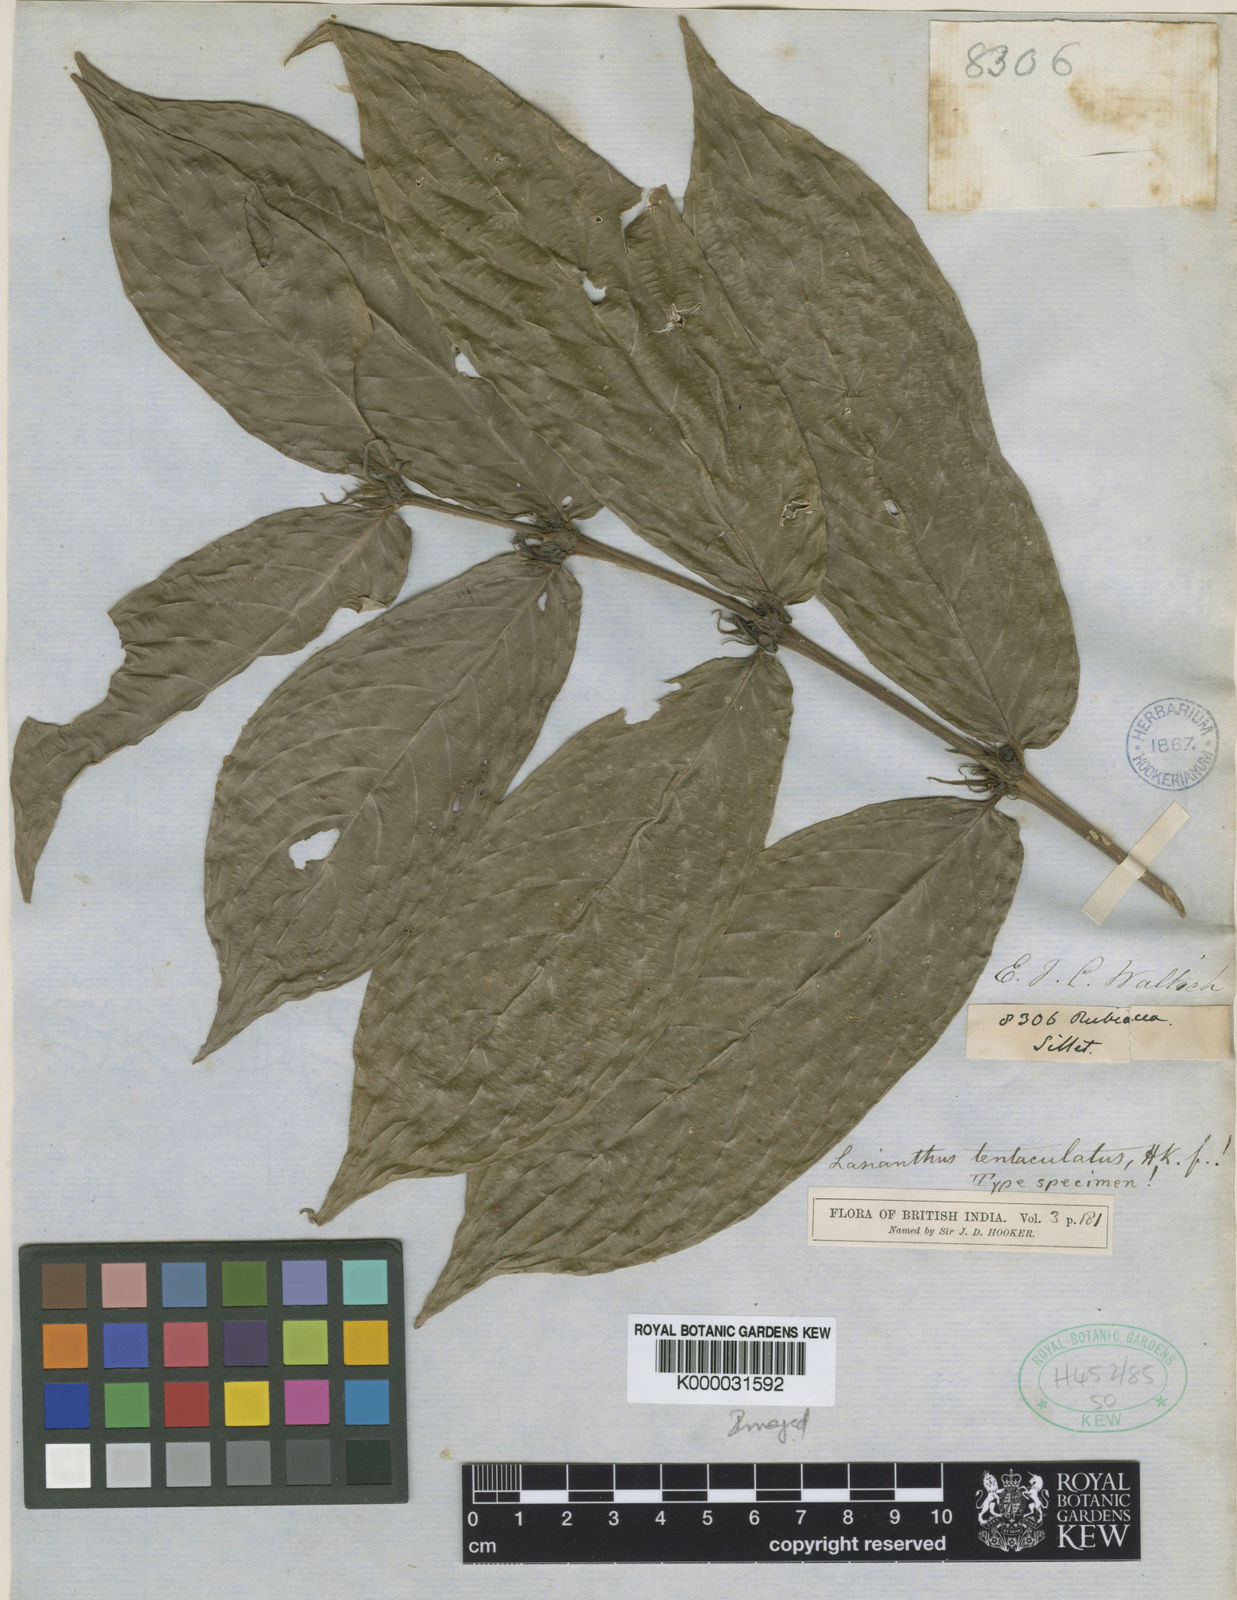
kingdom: Plantae
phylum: Tracheophyta
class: Magnoliopsida
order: Gentianales
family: Rubiaceae
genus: Lasianthus
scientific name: Lasianthus rigidus
